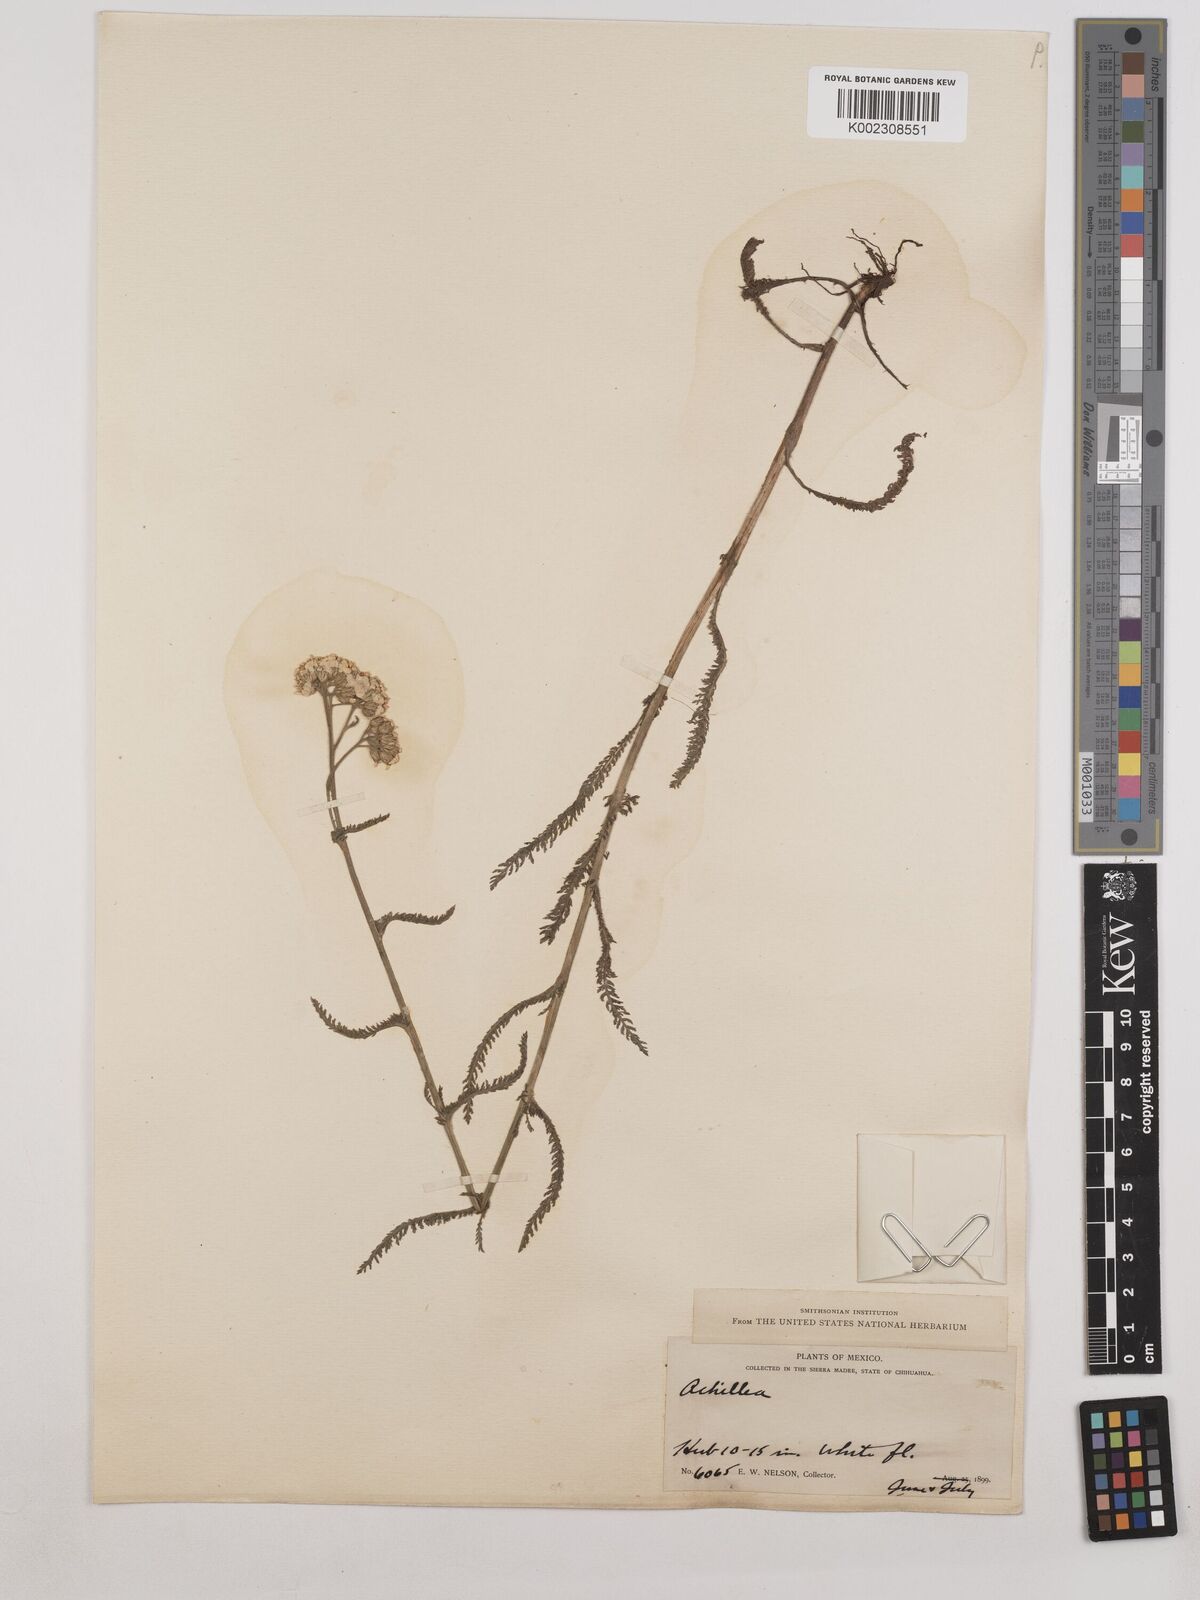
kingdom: Plantae
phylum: Tracheophyta
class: Magnoliopsida
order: Asterales
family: Asteraceae
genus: Achillea
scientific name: Achillea
